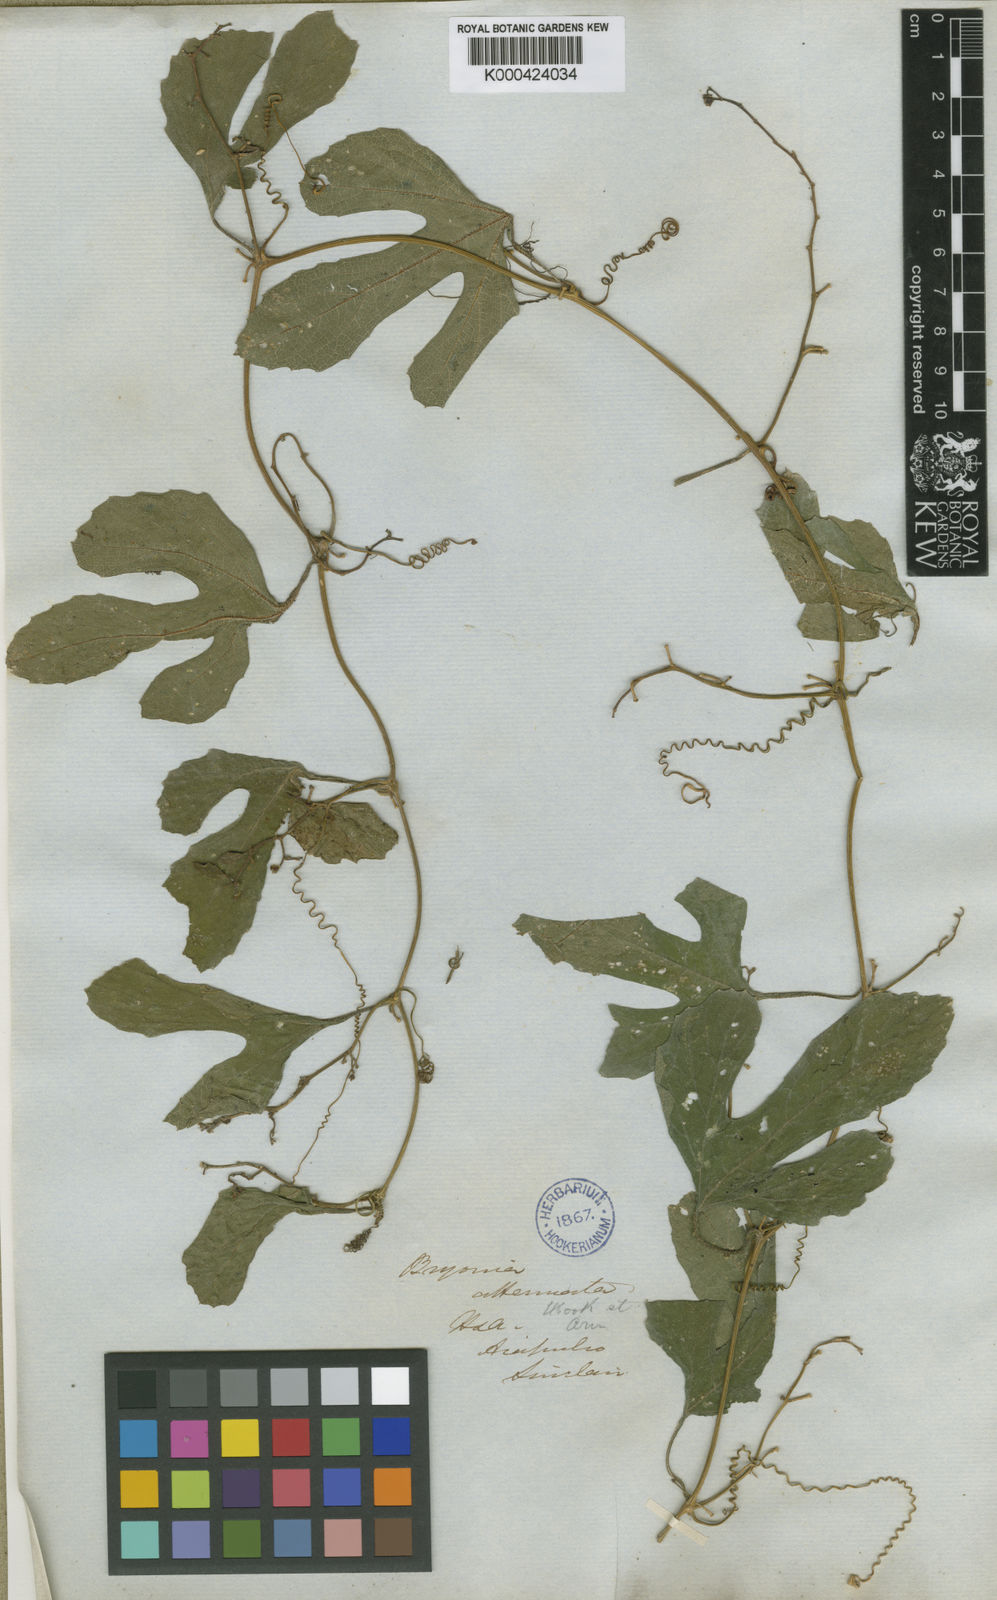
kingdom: Plantae
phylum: Tracheophyta
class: Magnoliopsida
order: Cucurbitales
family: Cucurbitaceae
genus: Cayaponia
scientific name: Cayaponia attenuata
